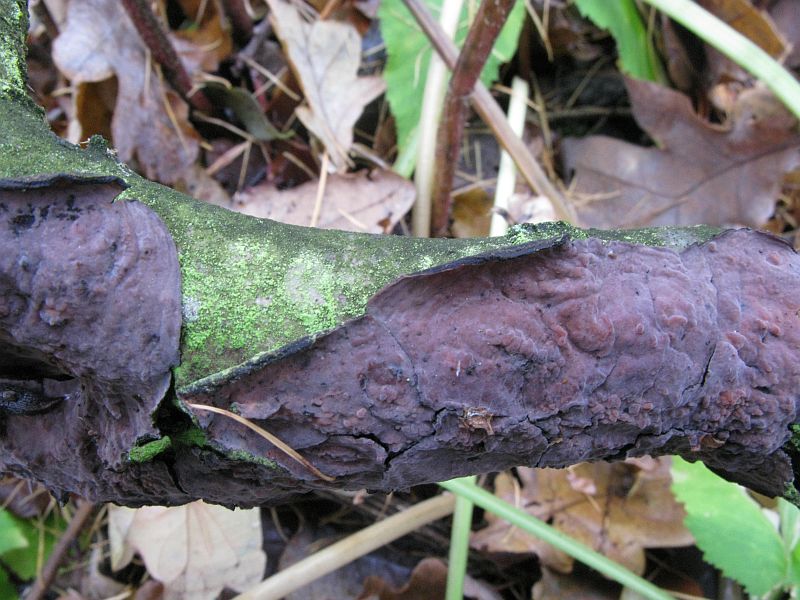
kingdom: Fungi
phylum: Basidiomycota
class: Agaricomycetes
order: Russulales
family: Peniophoraceae
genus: Peniophora
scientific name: Peniophora quercina
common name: ege-voksskind
